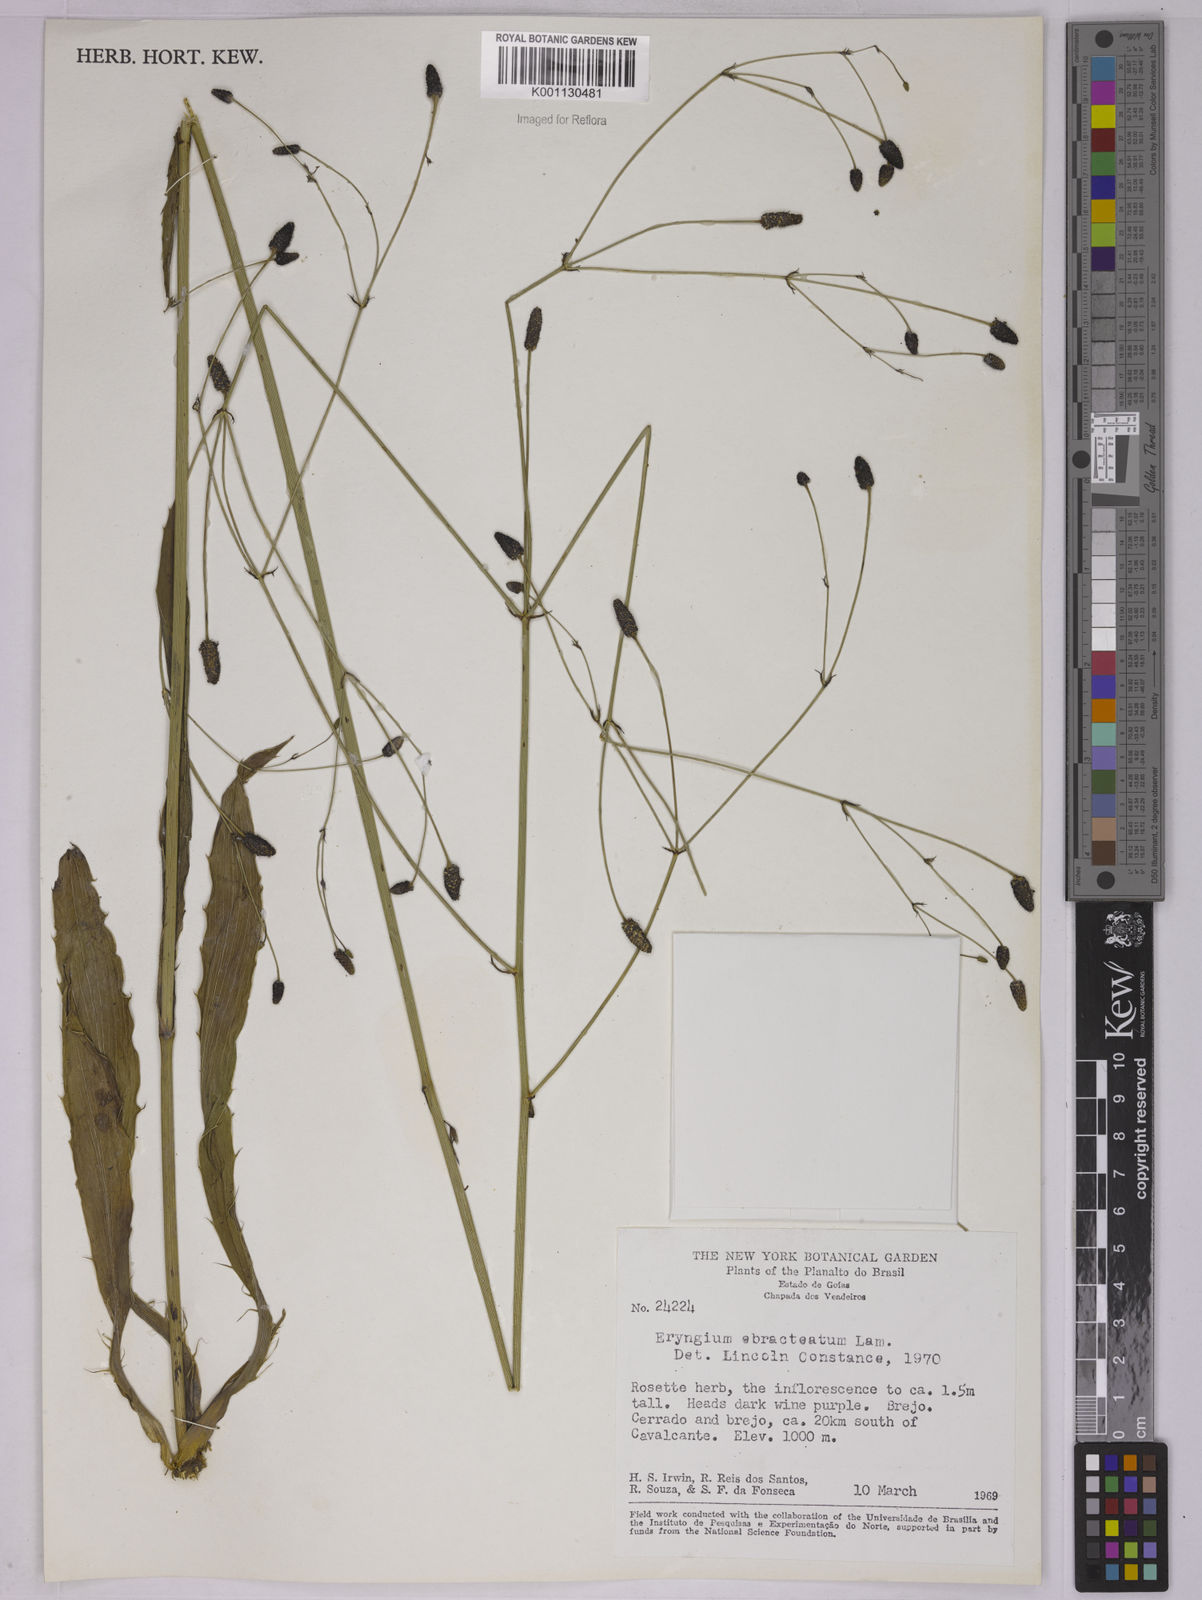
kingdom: Plantae
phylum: Tracheophyta
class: Magnoliopsida
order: Apiales
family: Apiaceae
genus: Eryngium
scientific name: Eryngium ebracteatum
